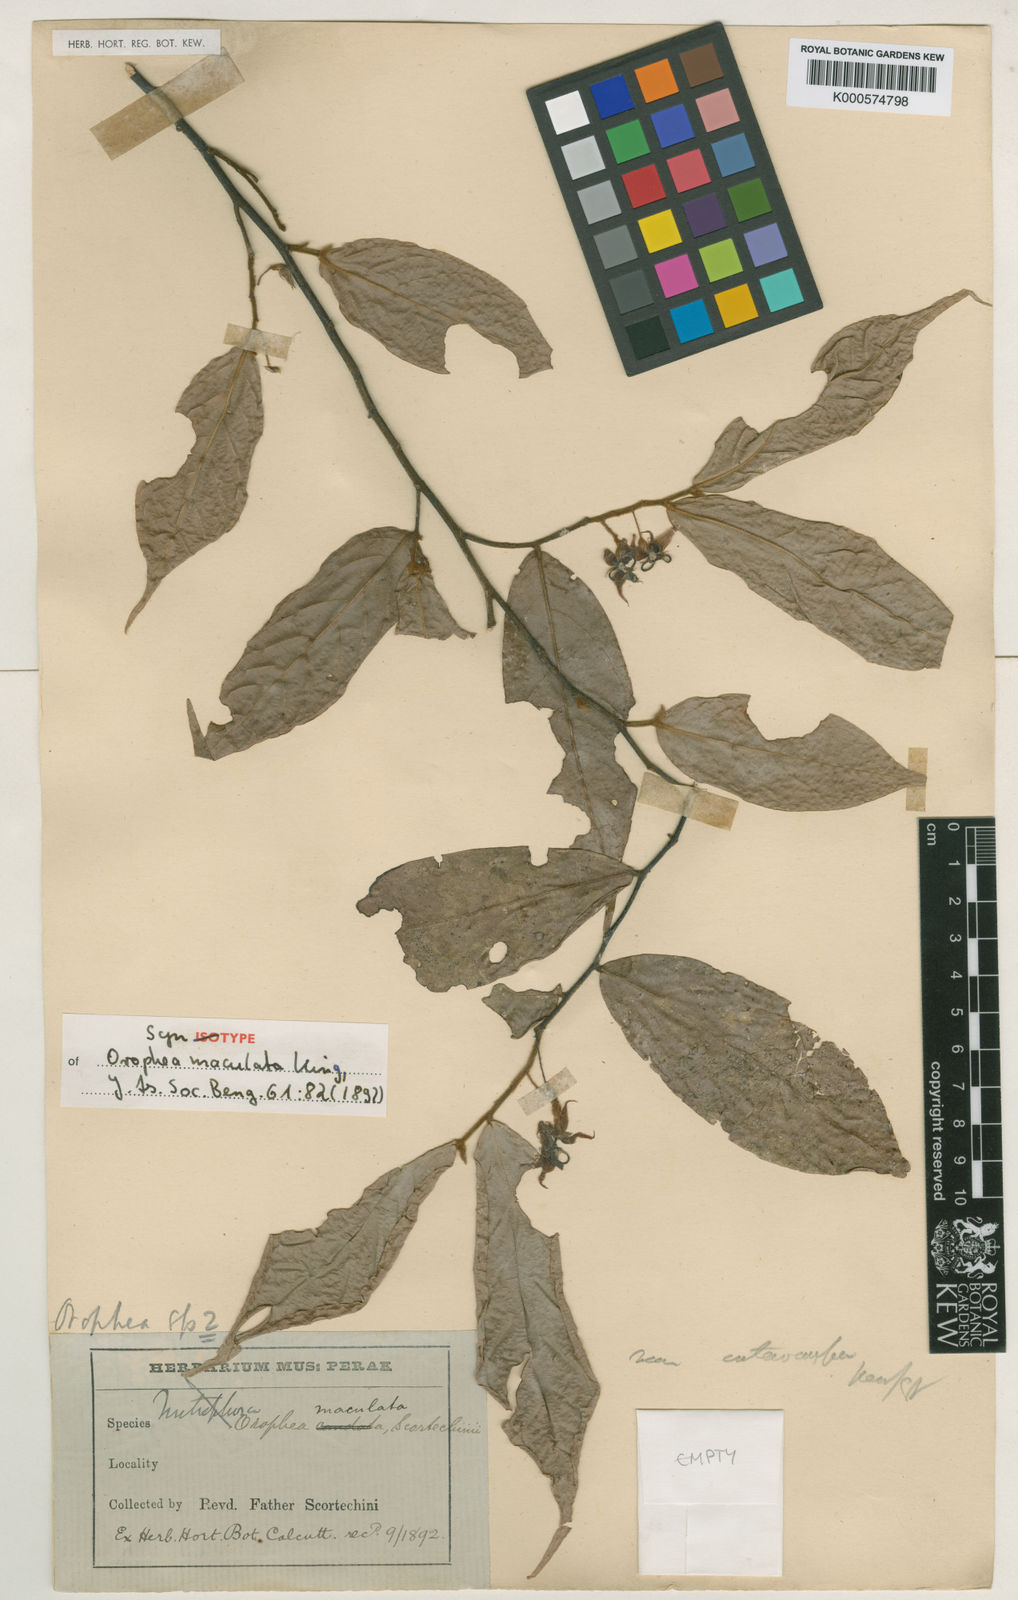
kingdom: Plantae
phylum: Tracheophyta
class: Magnoliopsida
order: Magnoliales
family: Annonaceae
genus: Orophea
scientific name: Orophea maculata
